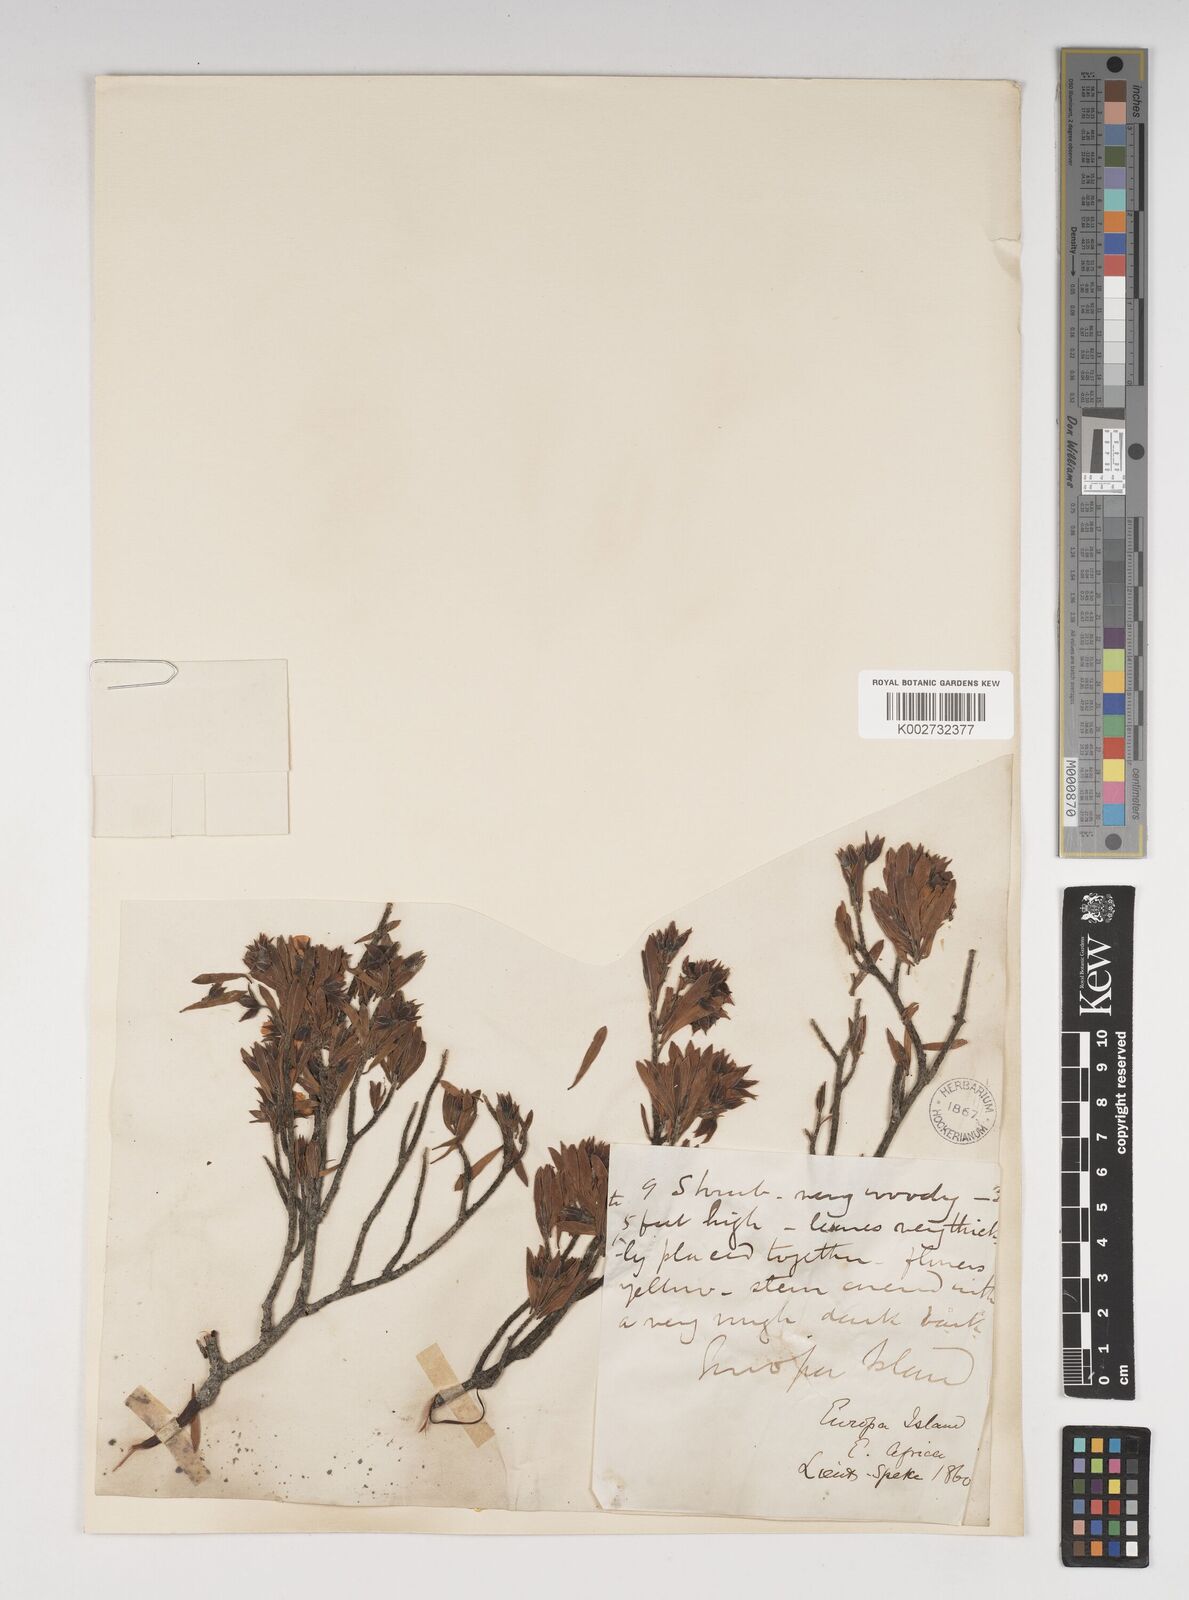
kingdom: Plantae
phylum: Tracheophyta
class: Magnoliopsida
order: Fabales
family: Surianaceae
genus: Suriana
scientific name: Suriana maritima
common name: Bay-cedar
